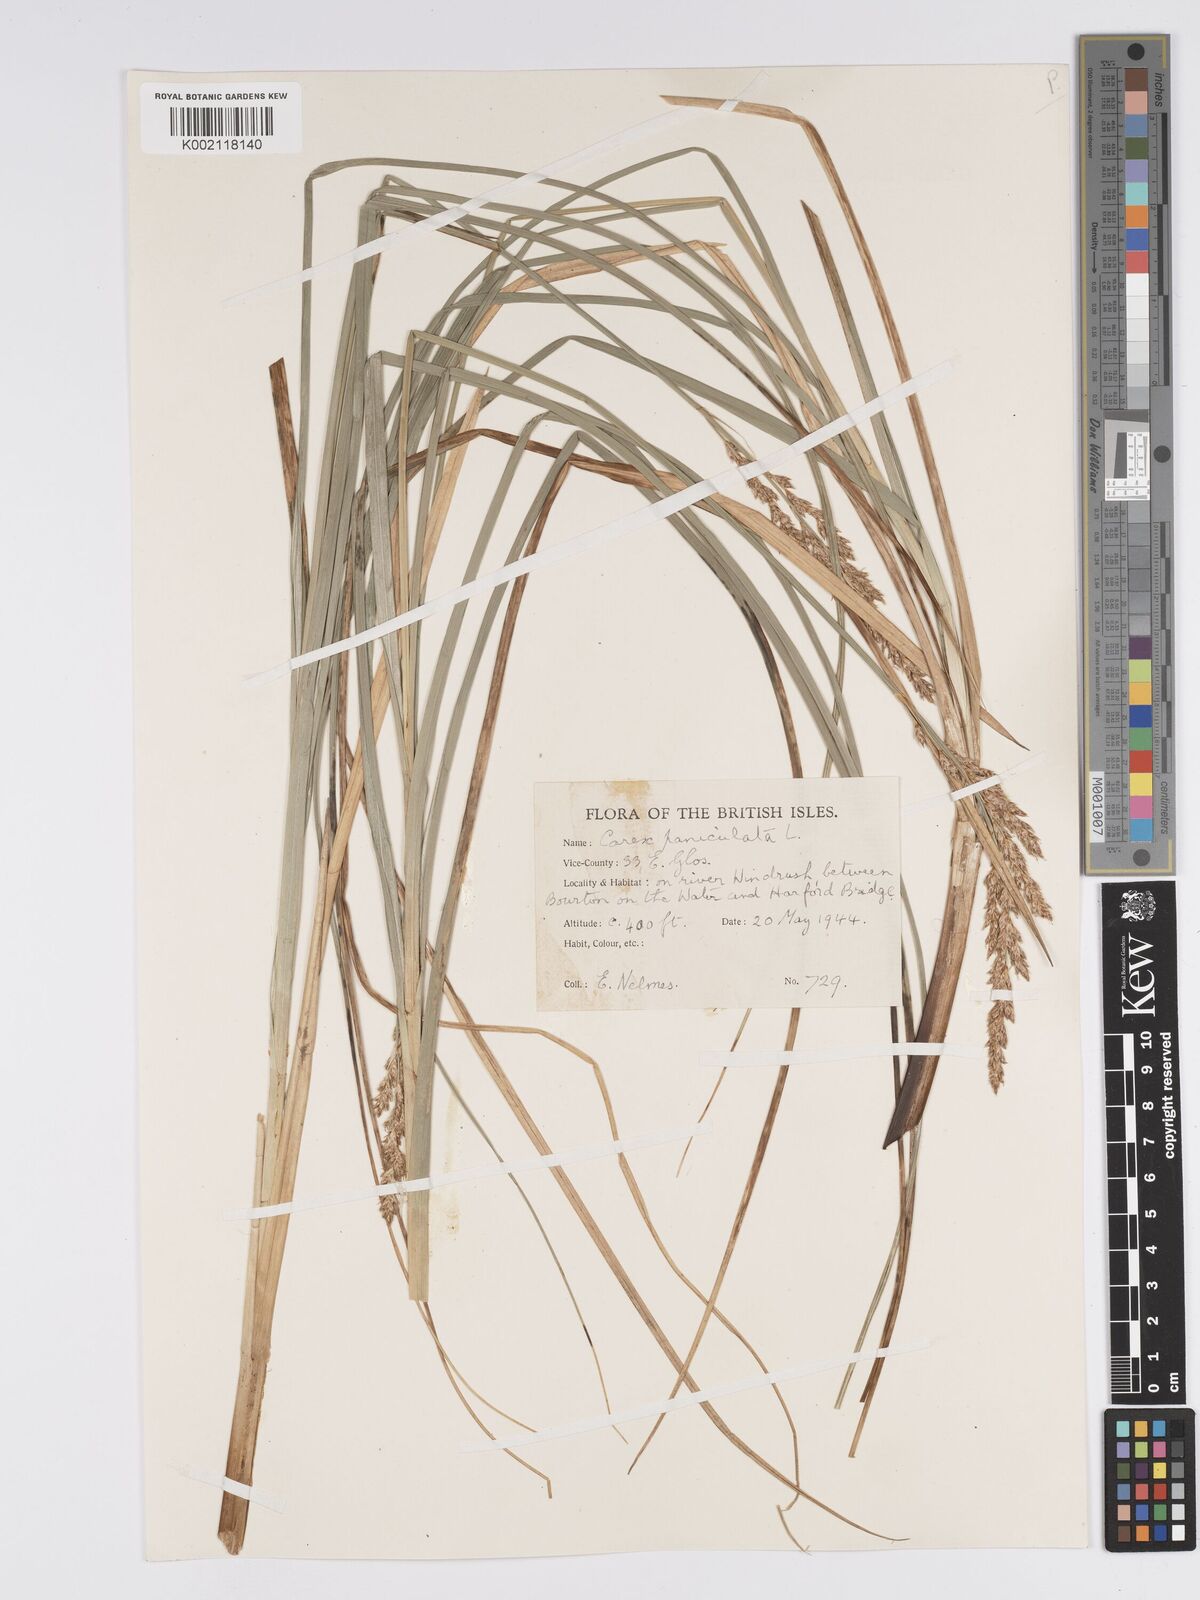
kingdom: Plantae
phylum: Tracheophyta
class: Liliopsida
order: Poales
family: Cyperaceae
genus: Carex
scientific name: Carex paniculata
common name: Greater tussock-sedge
